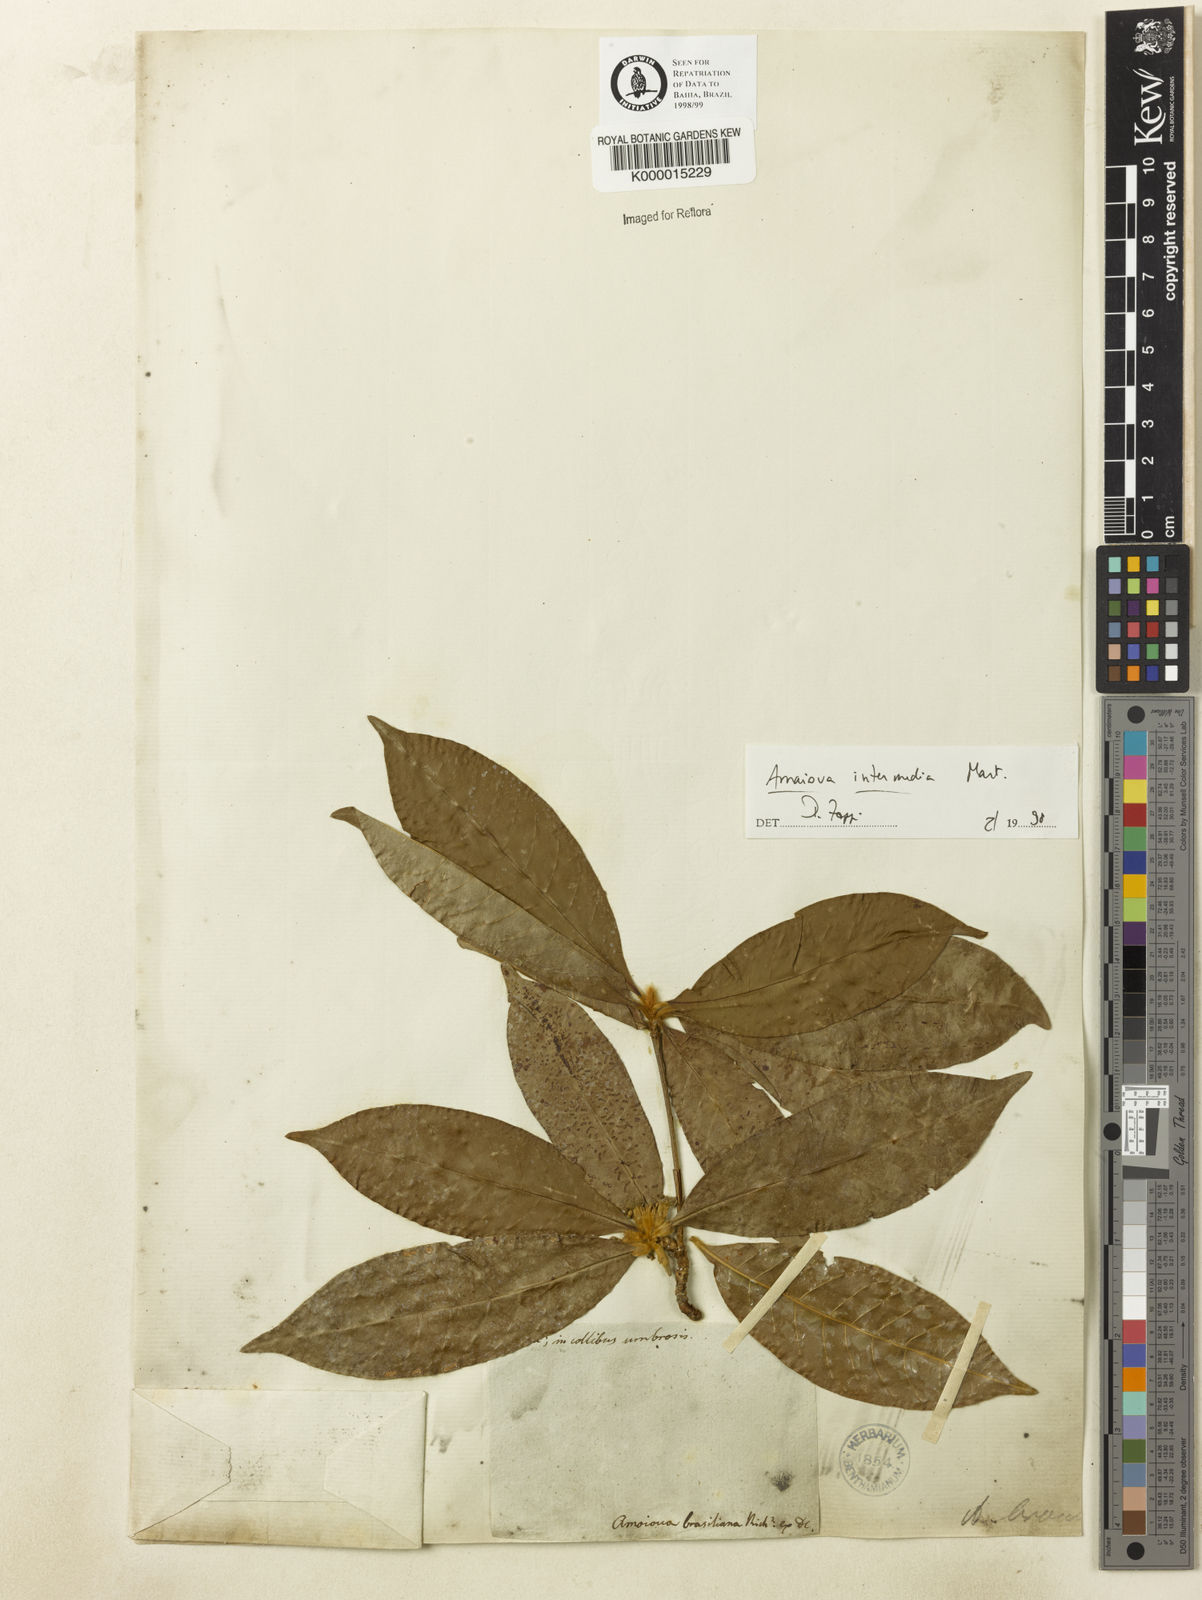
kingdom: Plantae
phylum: Tracheophyta
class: Magnoliopsida
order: Gentianales
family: Rubiaceae
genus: Amaioua
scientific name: Amaioua intermedia
